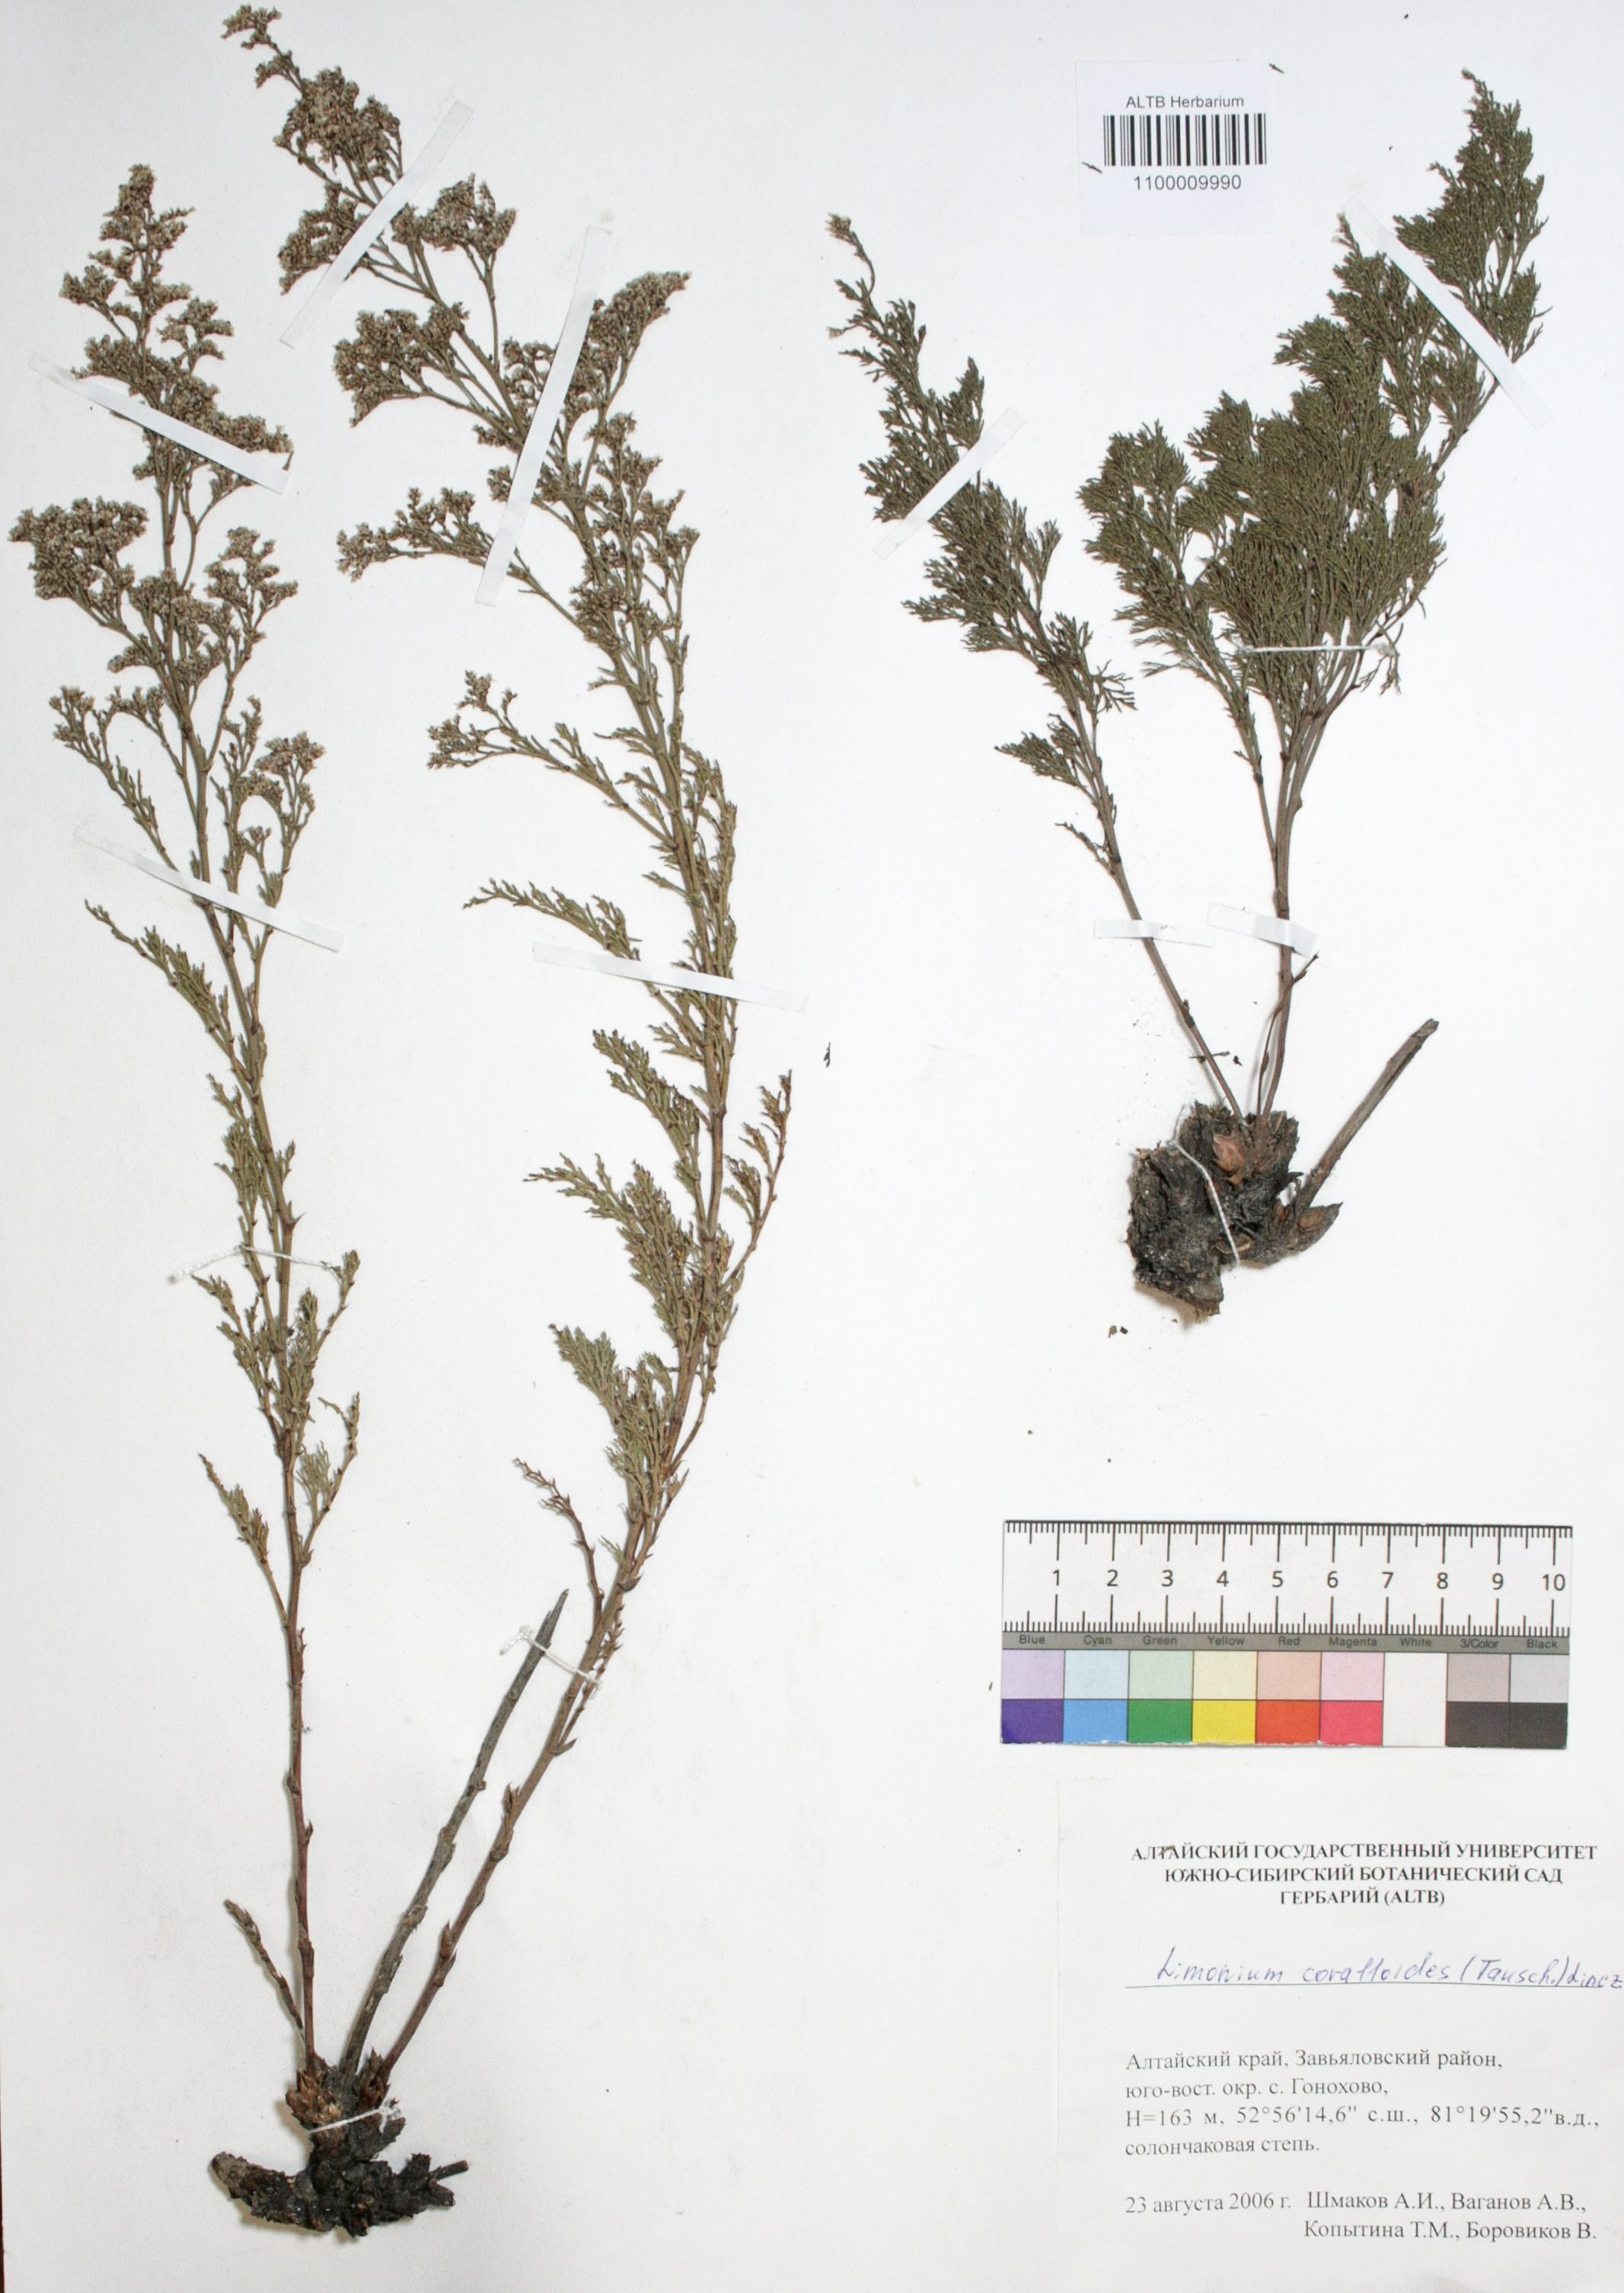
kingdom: Plantae
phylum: Tracheophyta
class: Magnoliopsida
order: Caryophyllales
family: Plumbaginaceae
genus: Limonium
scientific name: Limonium coralloides
